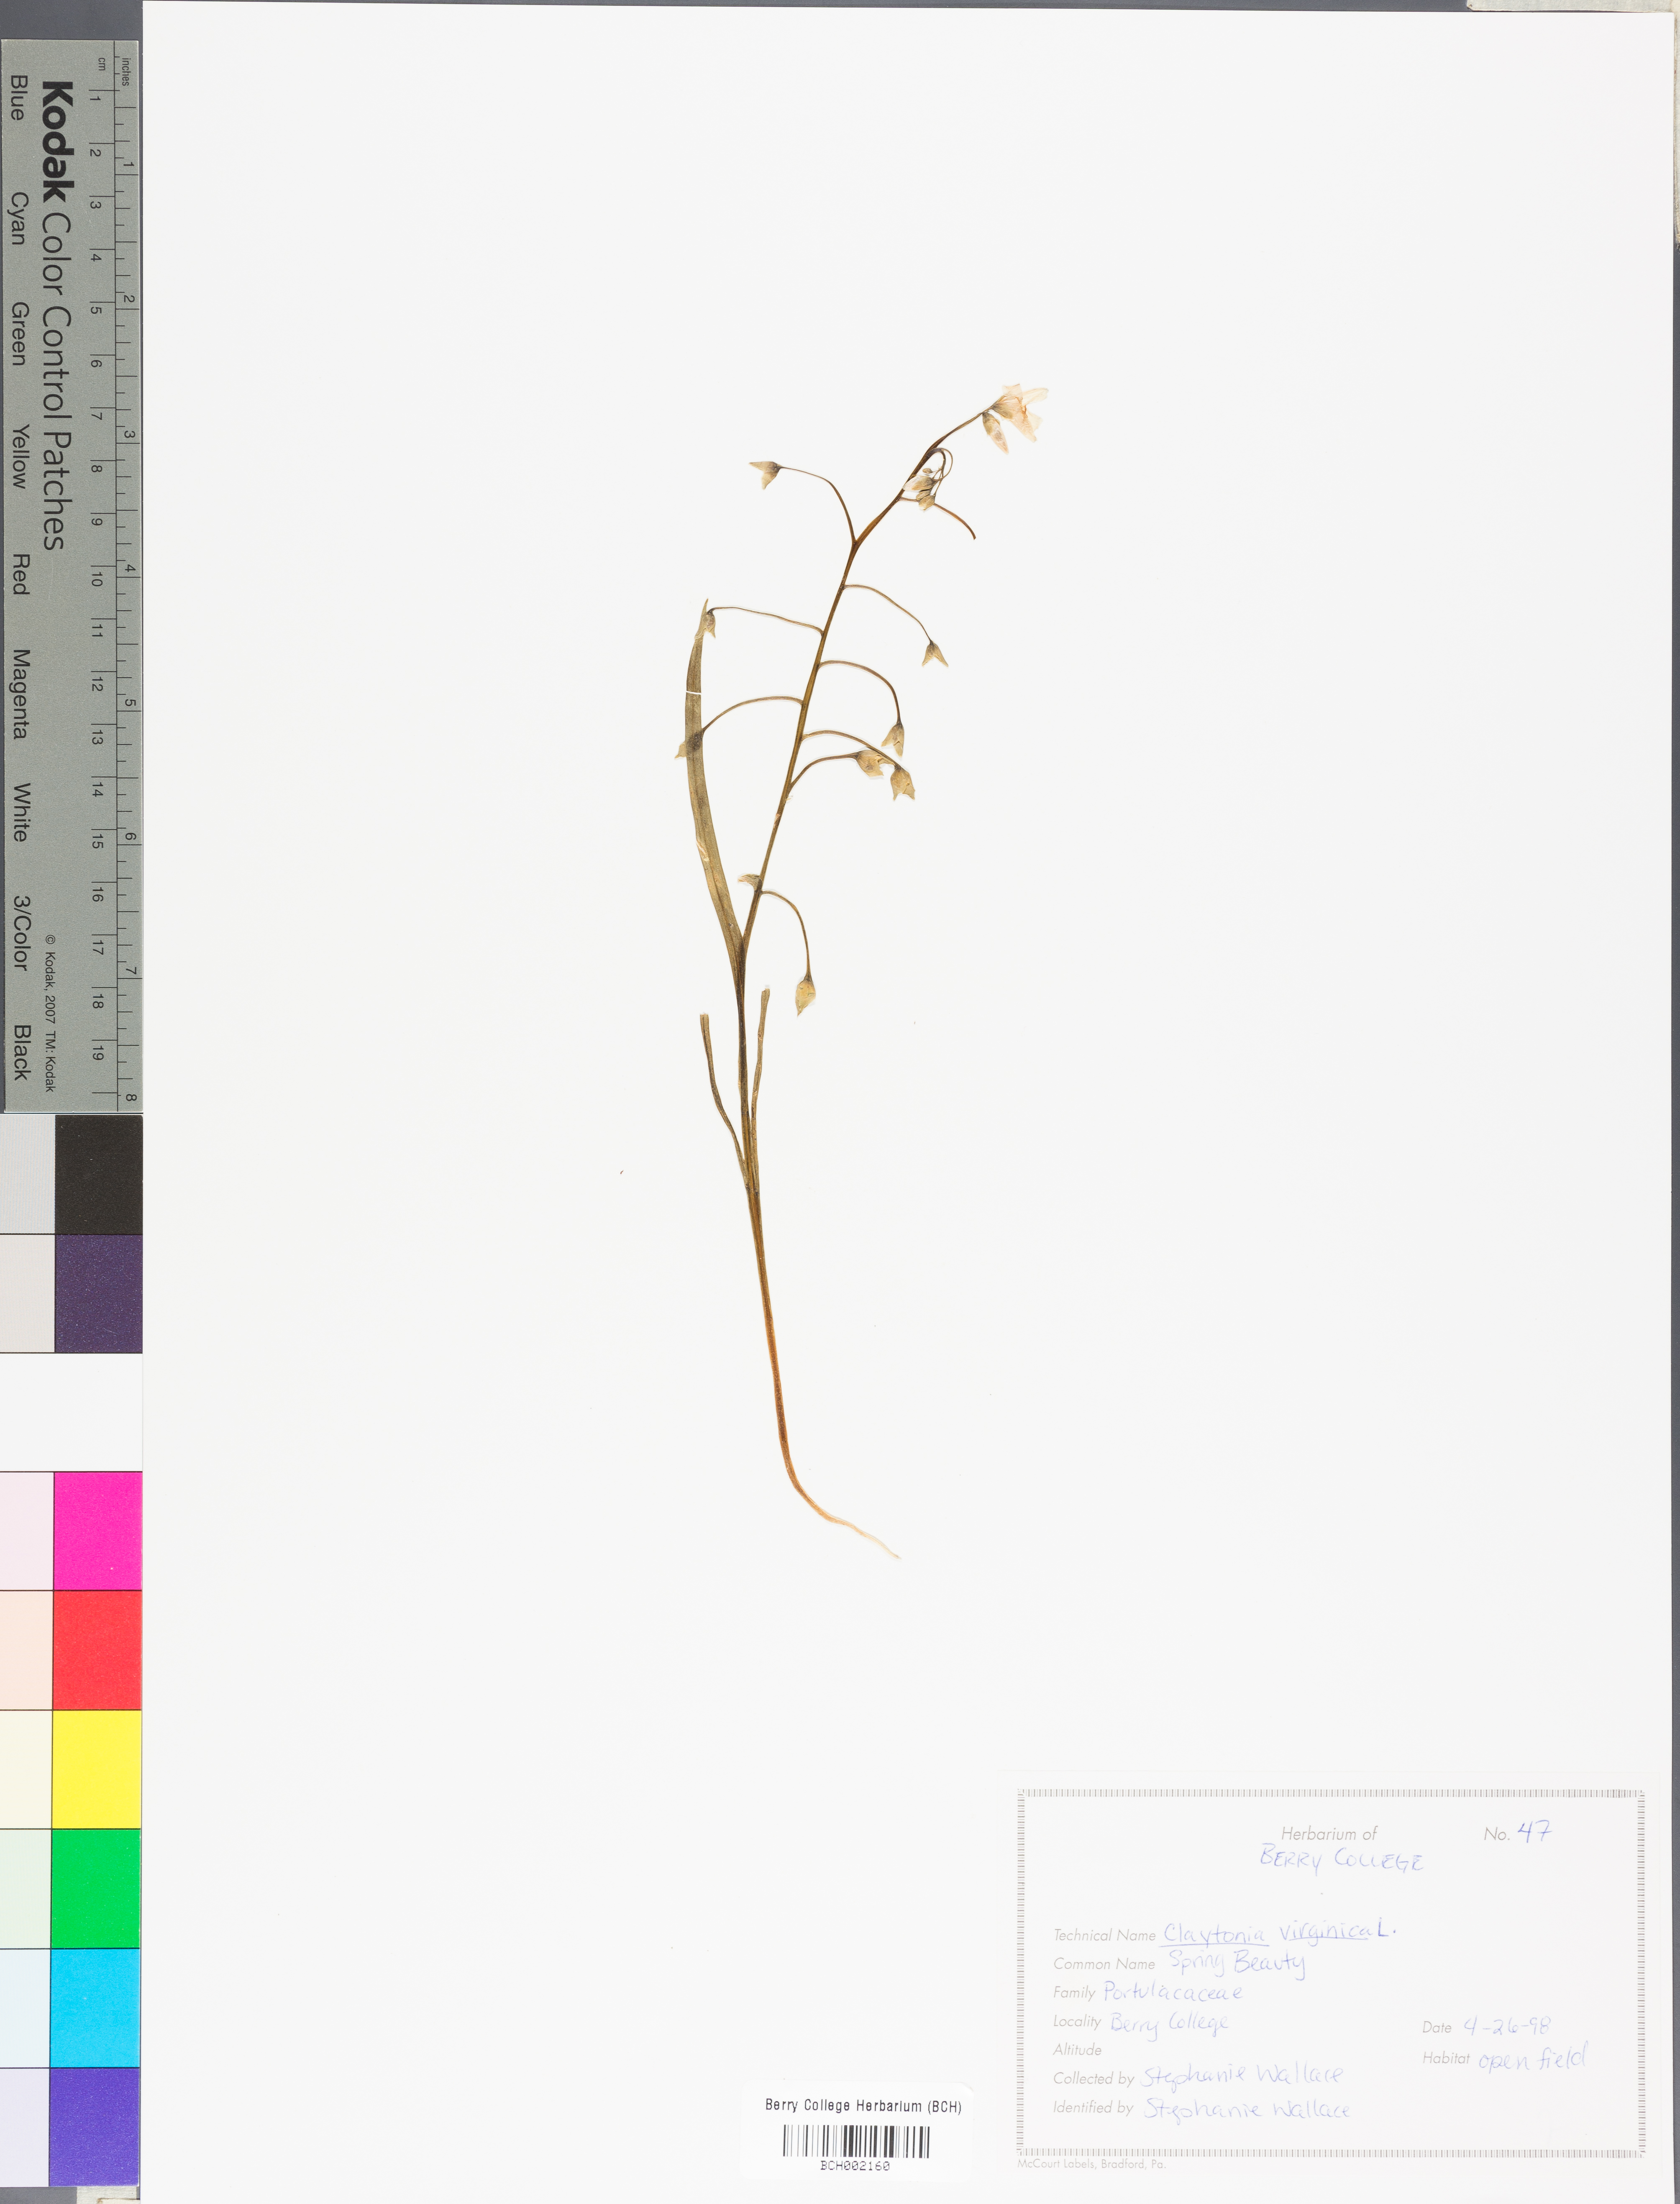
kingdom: Plantae
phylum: Tracheophyta
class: Magnoliopsida
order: Caryophyllales
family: Montiaceae
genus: Claytonia
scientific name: Claytonia virginica
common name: Virginia springbeauty
